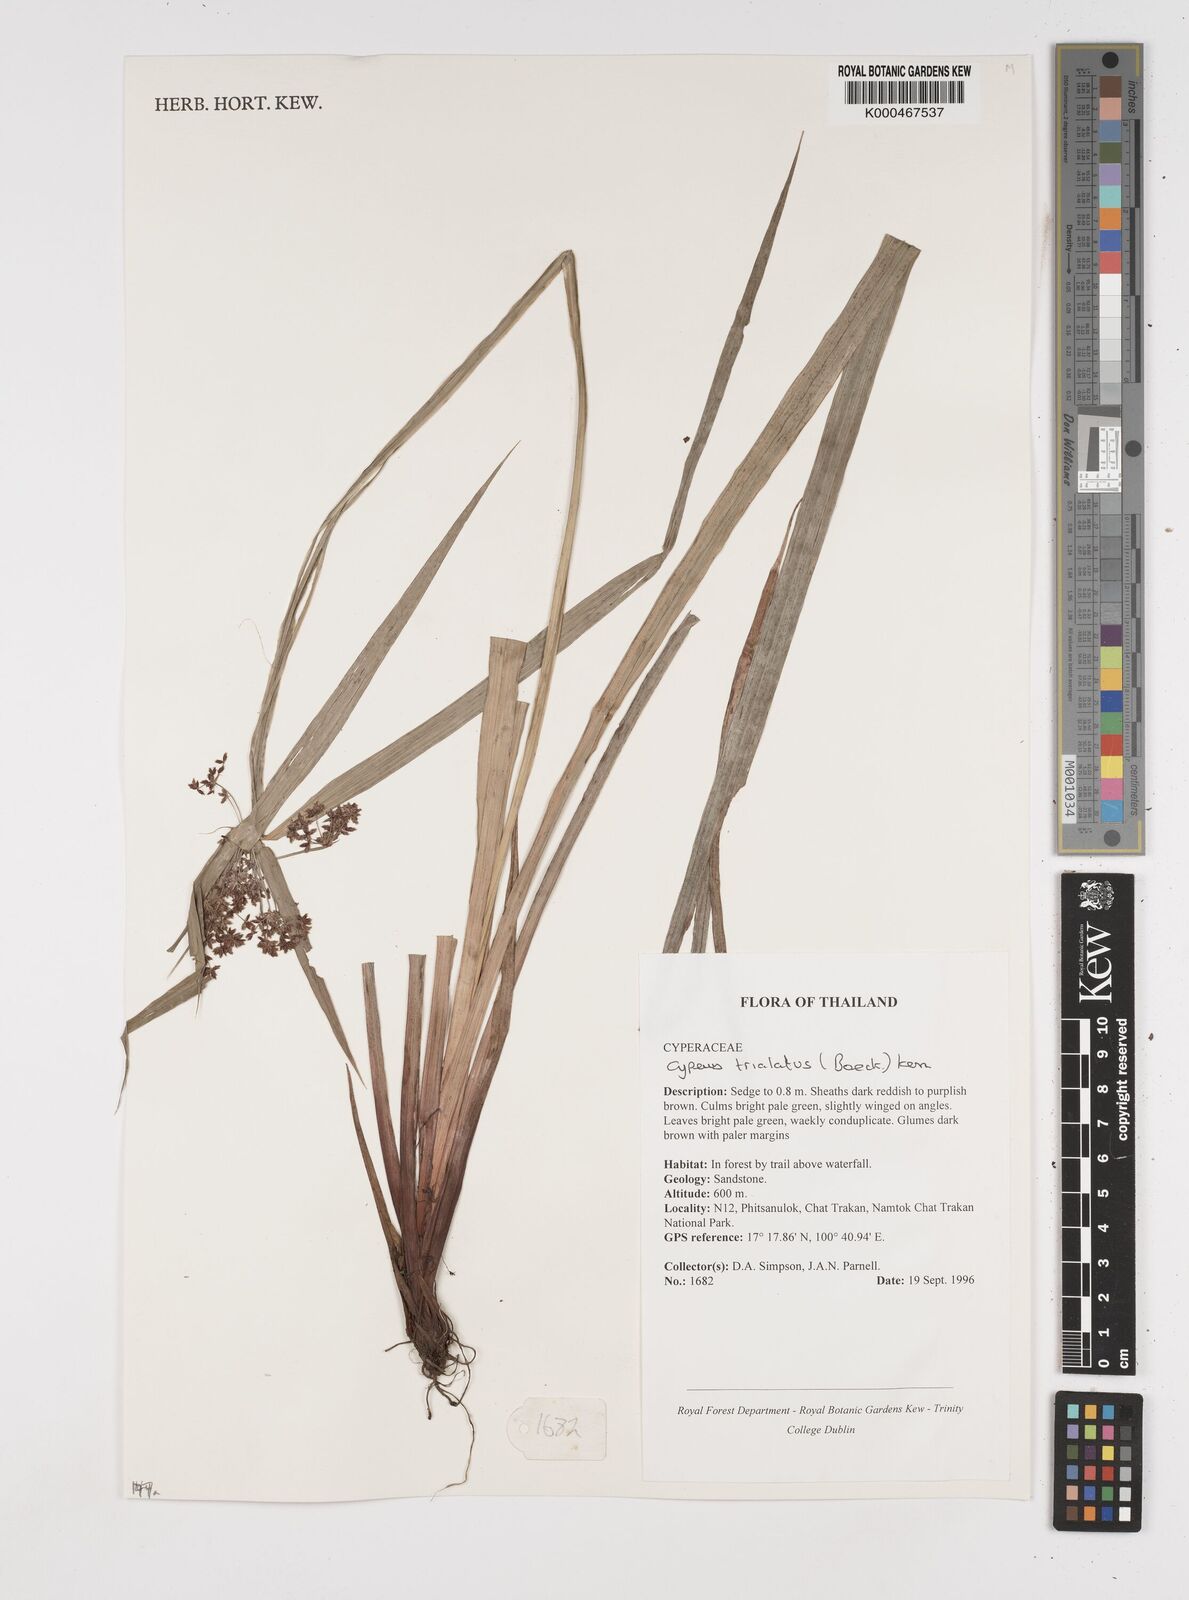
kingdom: Plantae
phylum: Tracheophyta
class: Liliopsida
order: Poales
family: Cyperaceae
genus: Cyperus
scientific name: Cyperus trialatus
